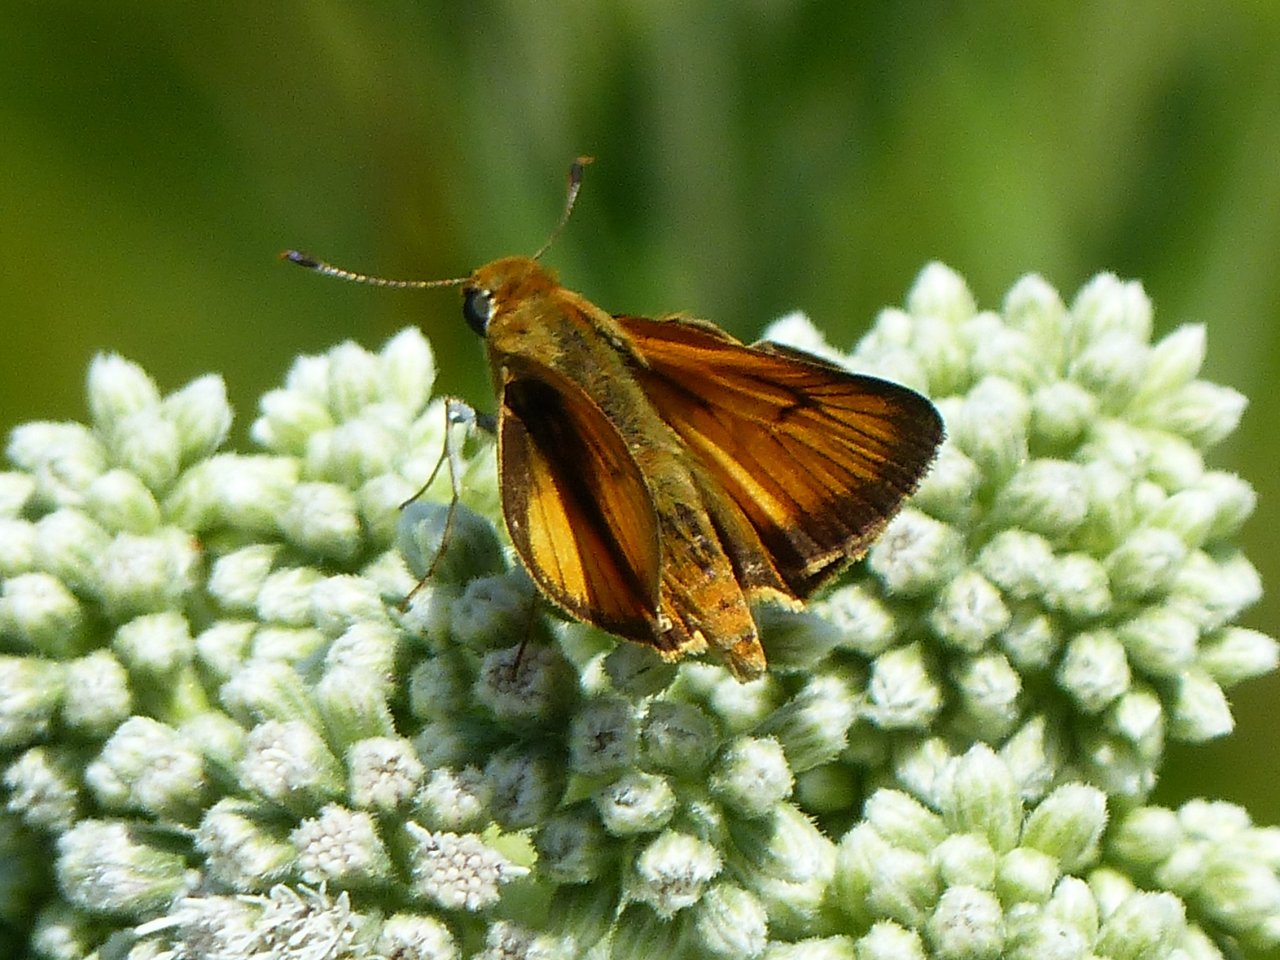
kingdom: Animalia
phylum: Arthropoda
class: Insecta
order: Lepidoptera
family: Hesperiidae
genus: Atrytone
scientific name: Atrytone delaware
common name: Delaware Skipper
